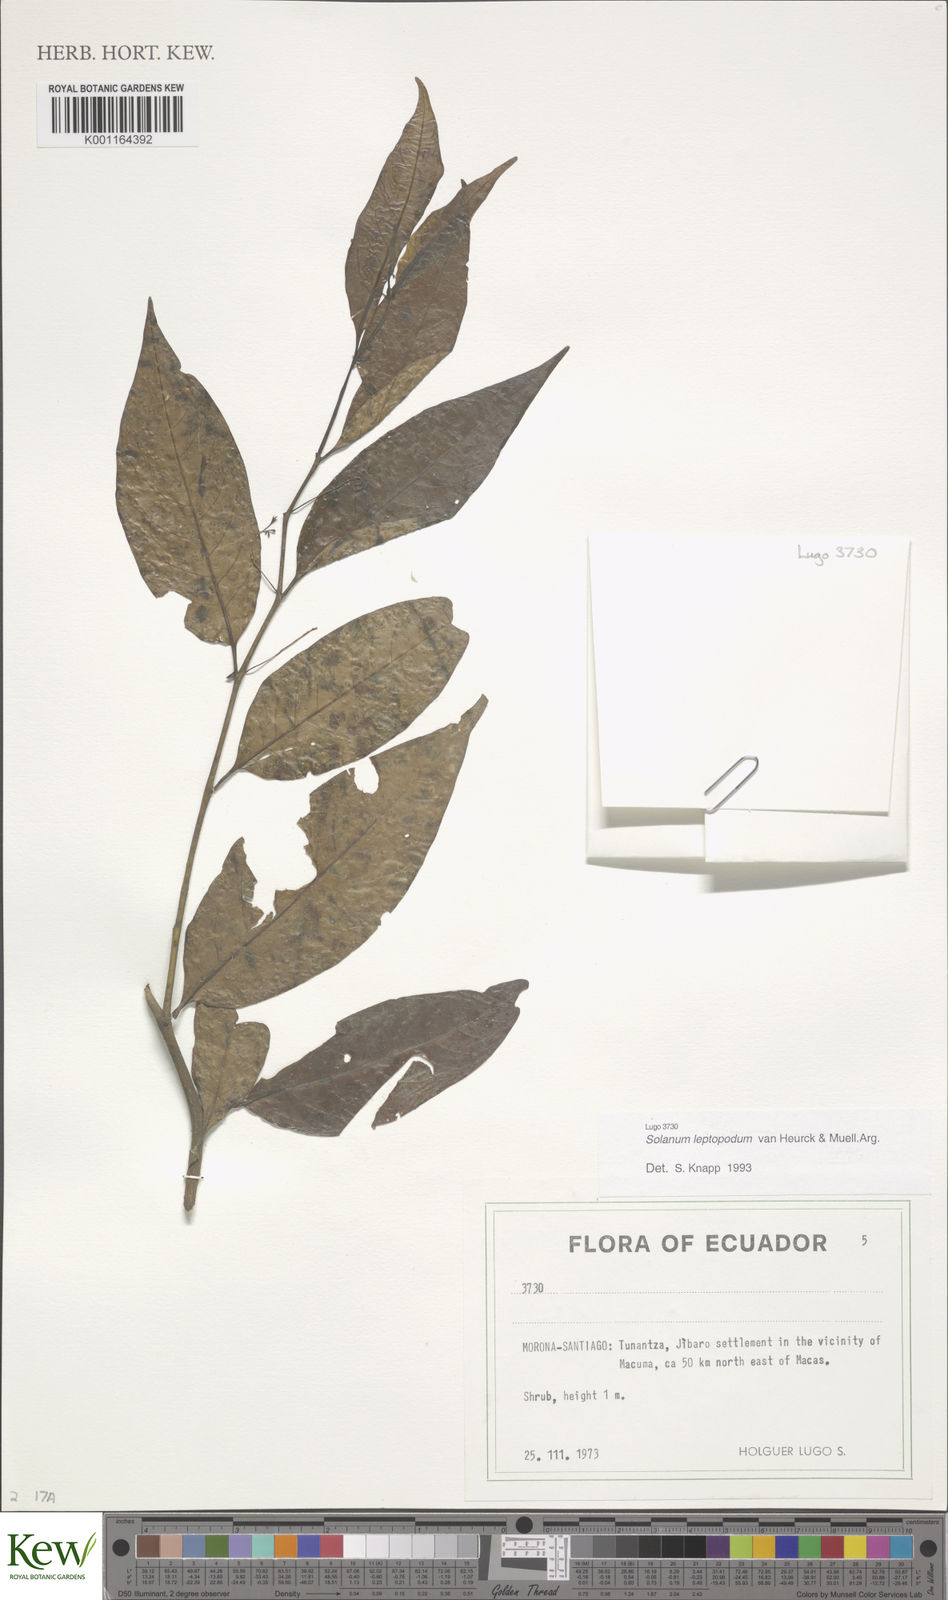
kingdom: Plantae
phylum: Tracheophyta
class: Magnoliopsida
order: Solanales
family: Solanaceae
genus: Solanum
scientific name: Solanum leptopodum
